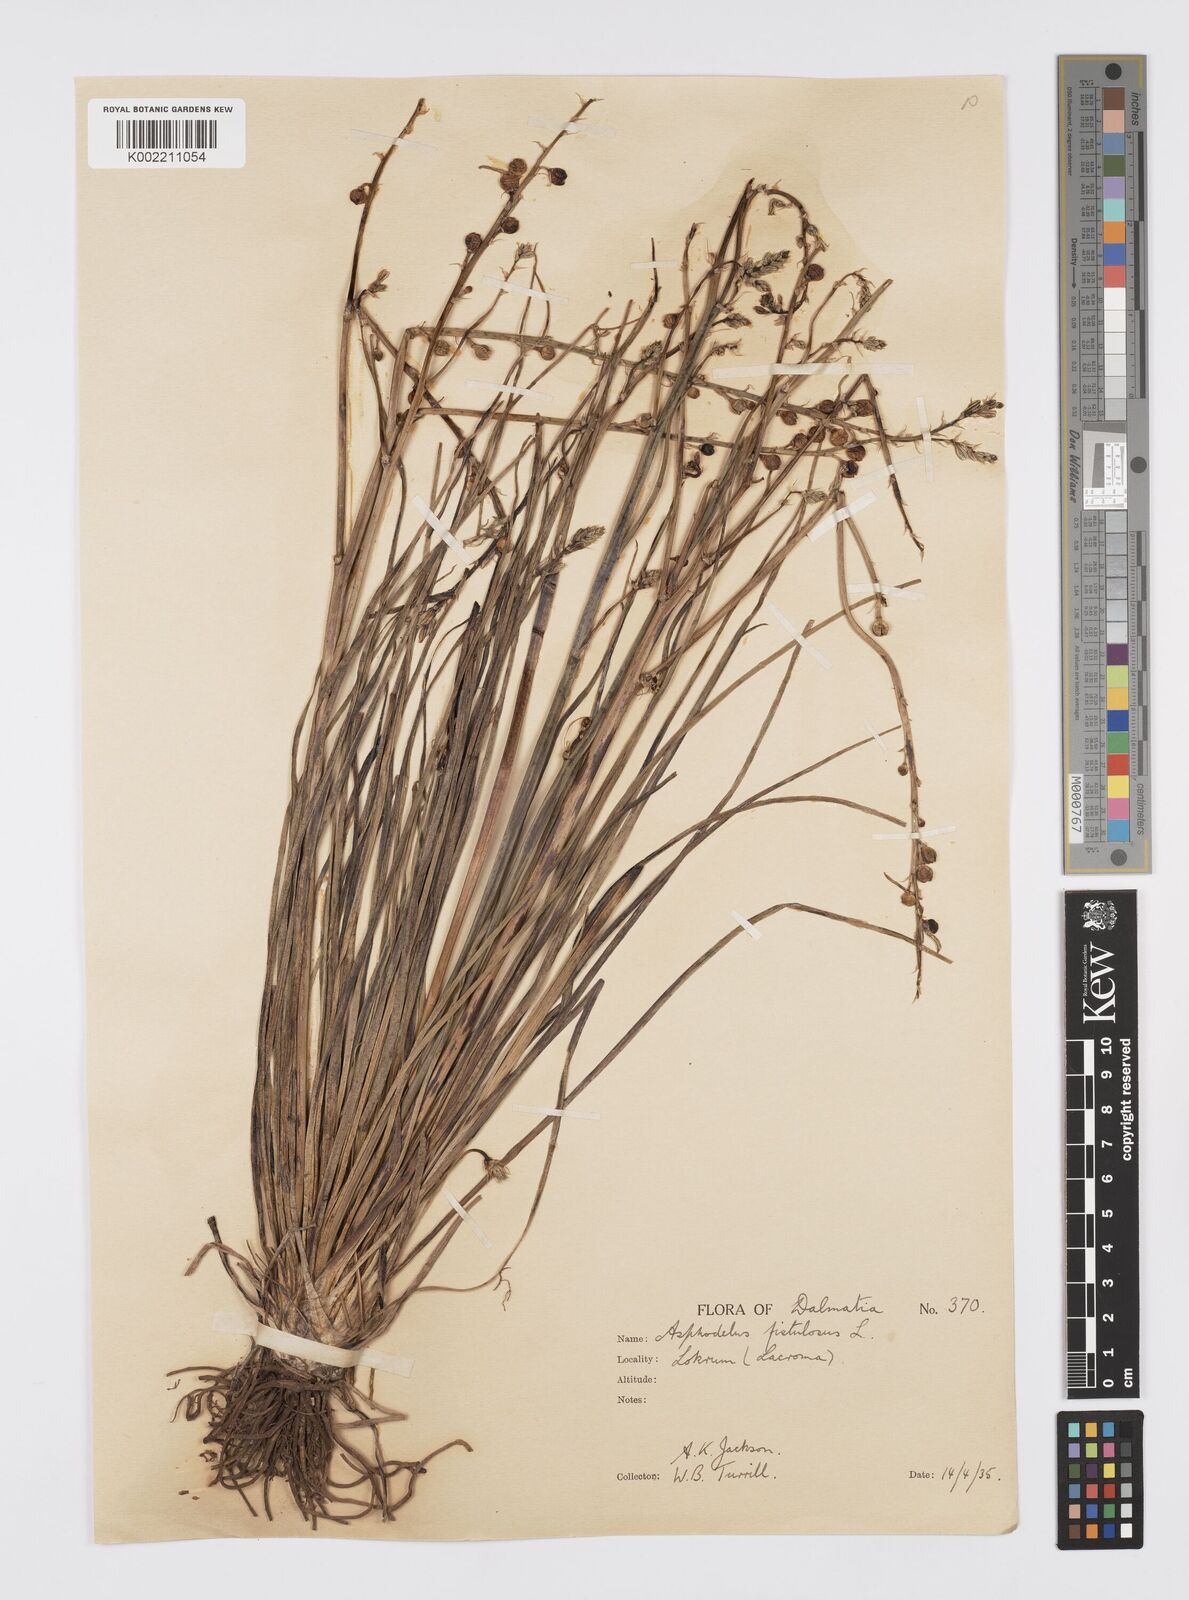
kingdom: Plantae
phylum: Tracheophyta
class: Liliopsida
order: Asparagales
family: Asphodelaceae
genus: Asphodelus
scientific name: Asphodelus fistulosus
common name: Onionweed
